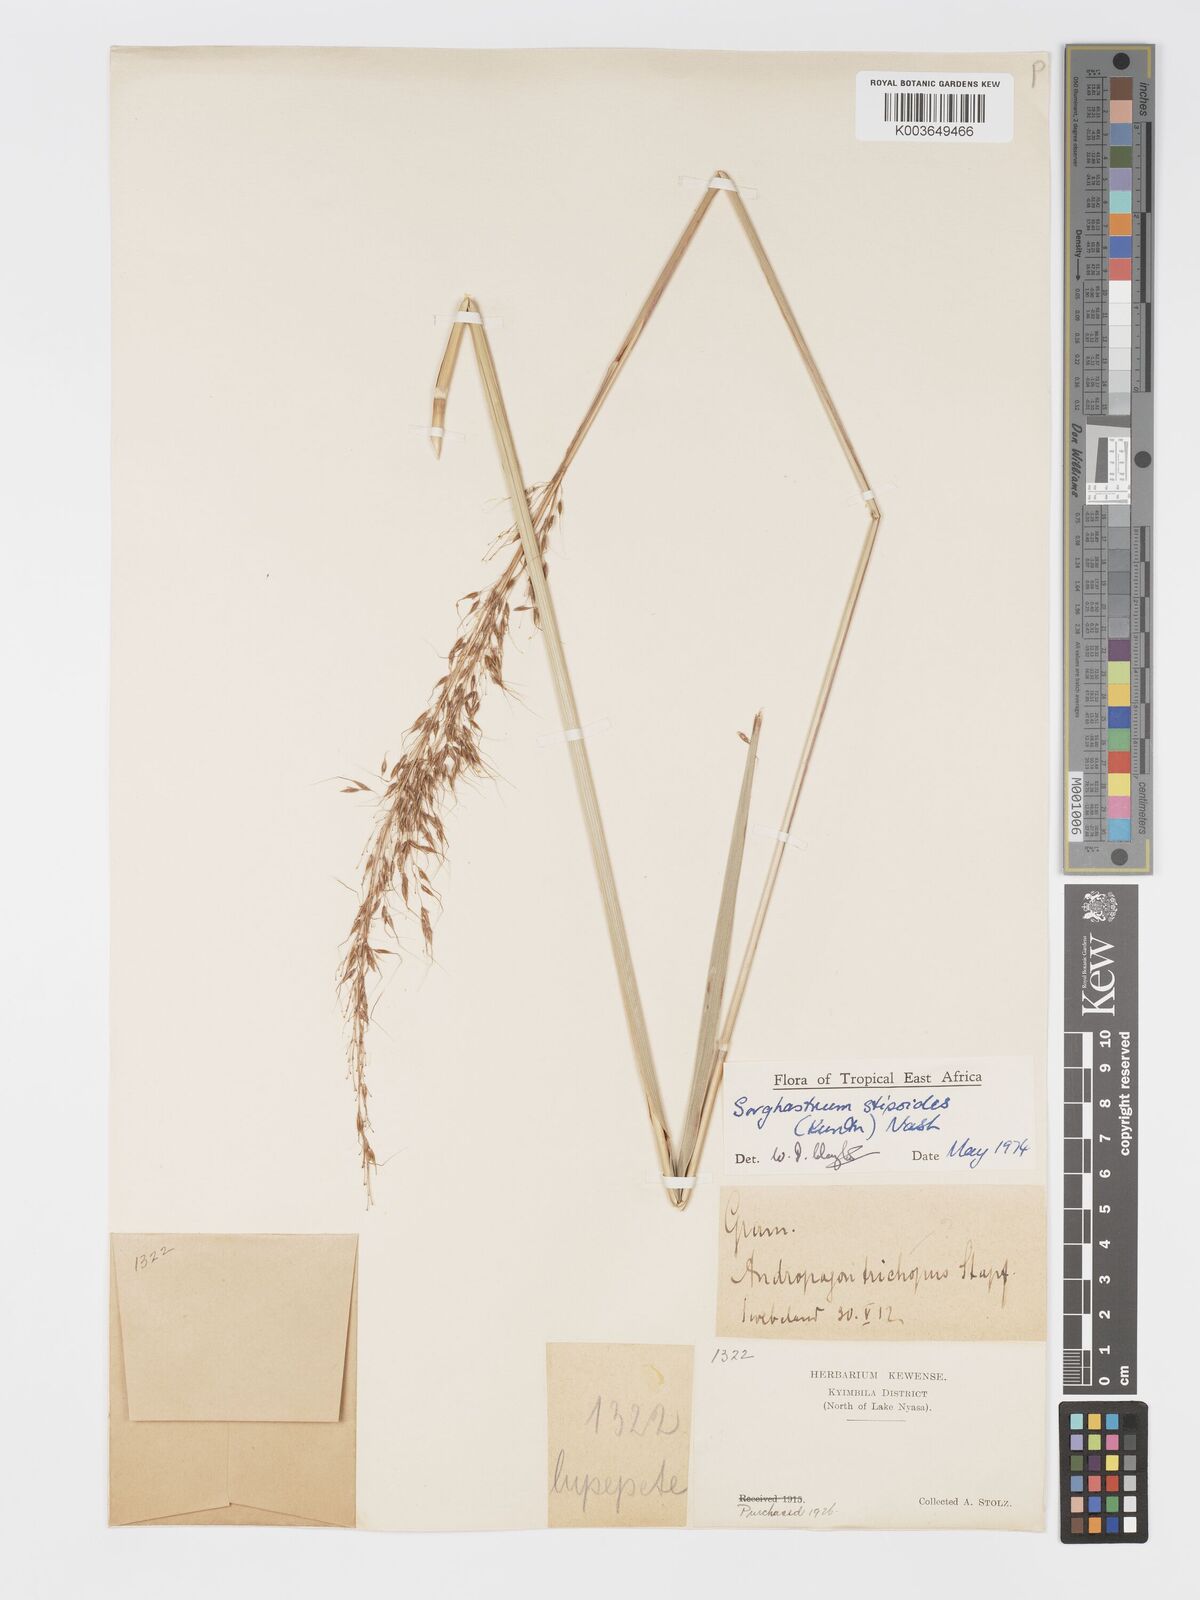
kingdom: Plantae
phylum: Tracheophyta
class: Liliopsida
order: Poales
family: Poaceae
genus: Sorghastrum
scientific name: Sorghastrum stipoides
